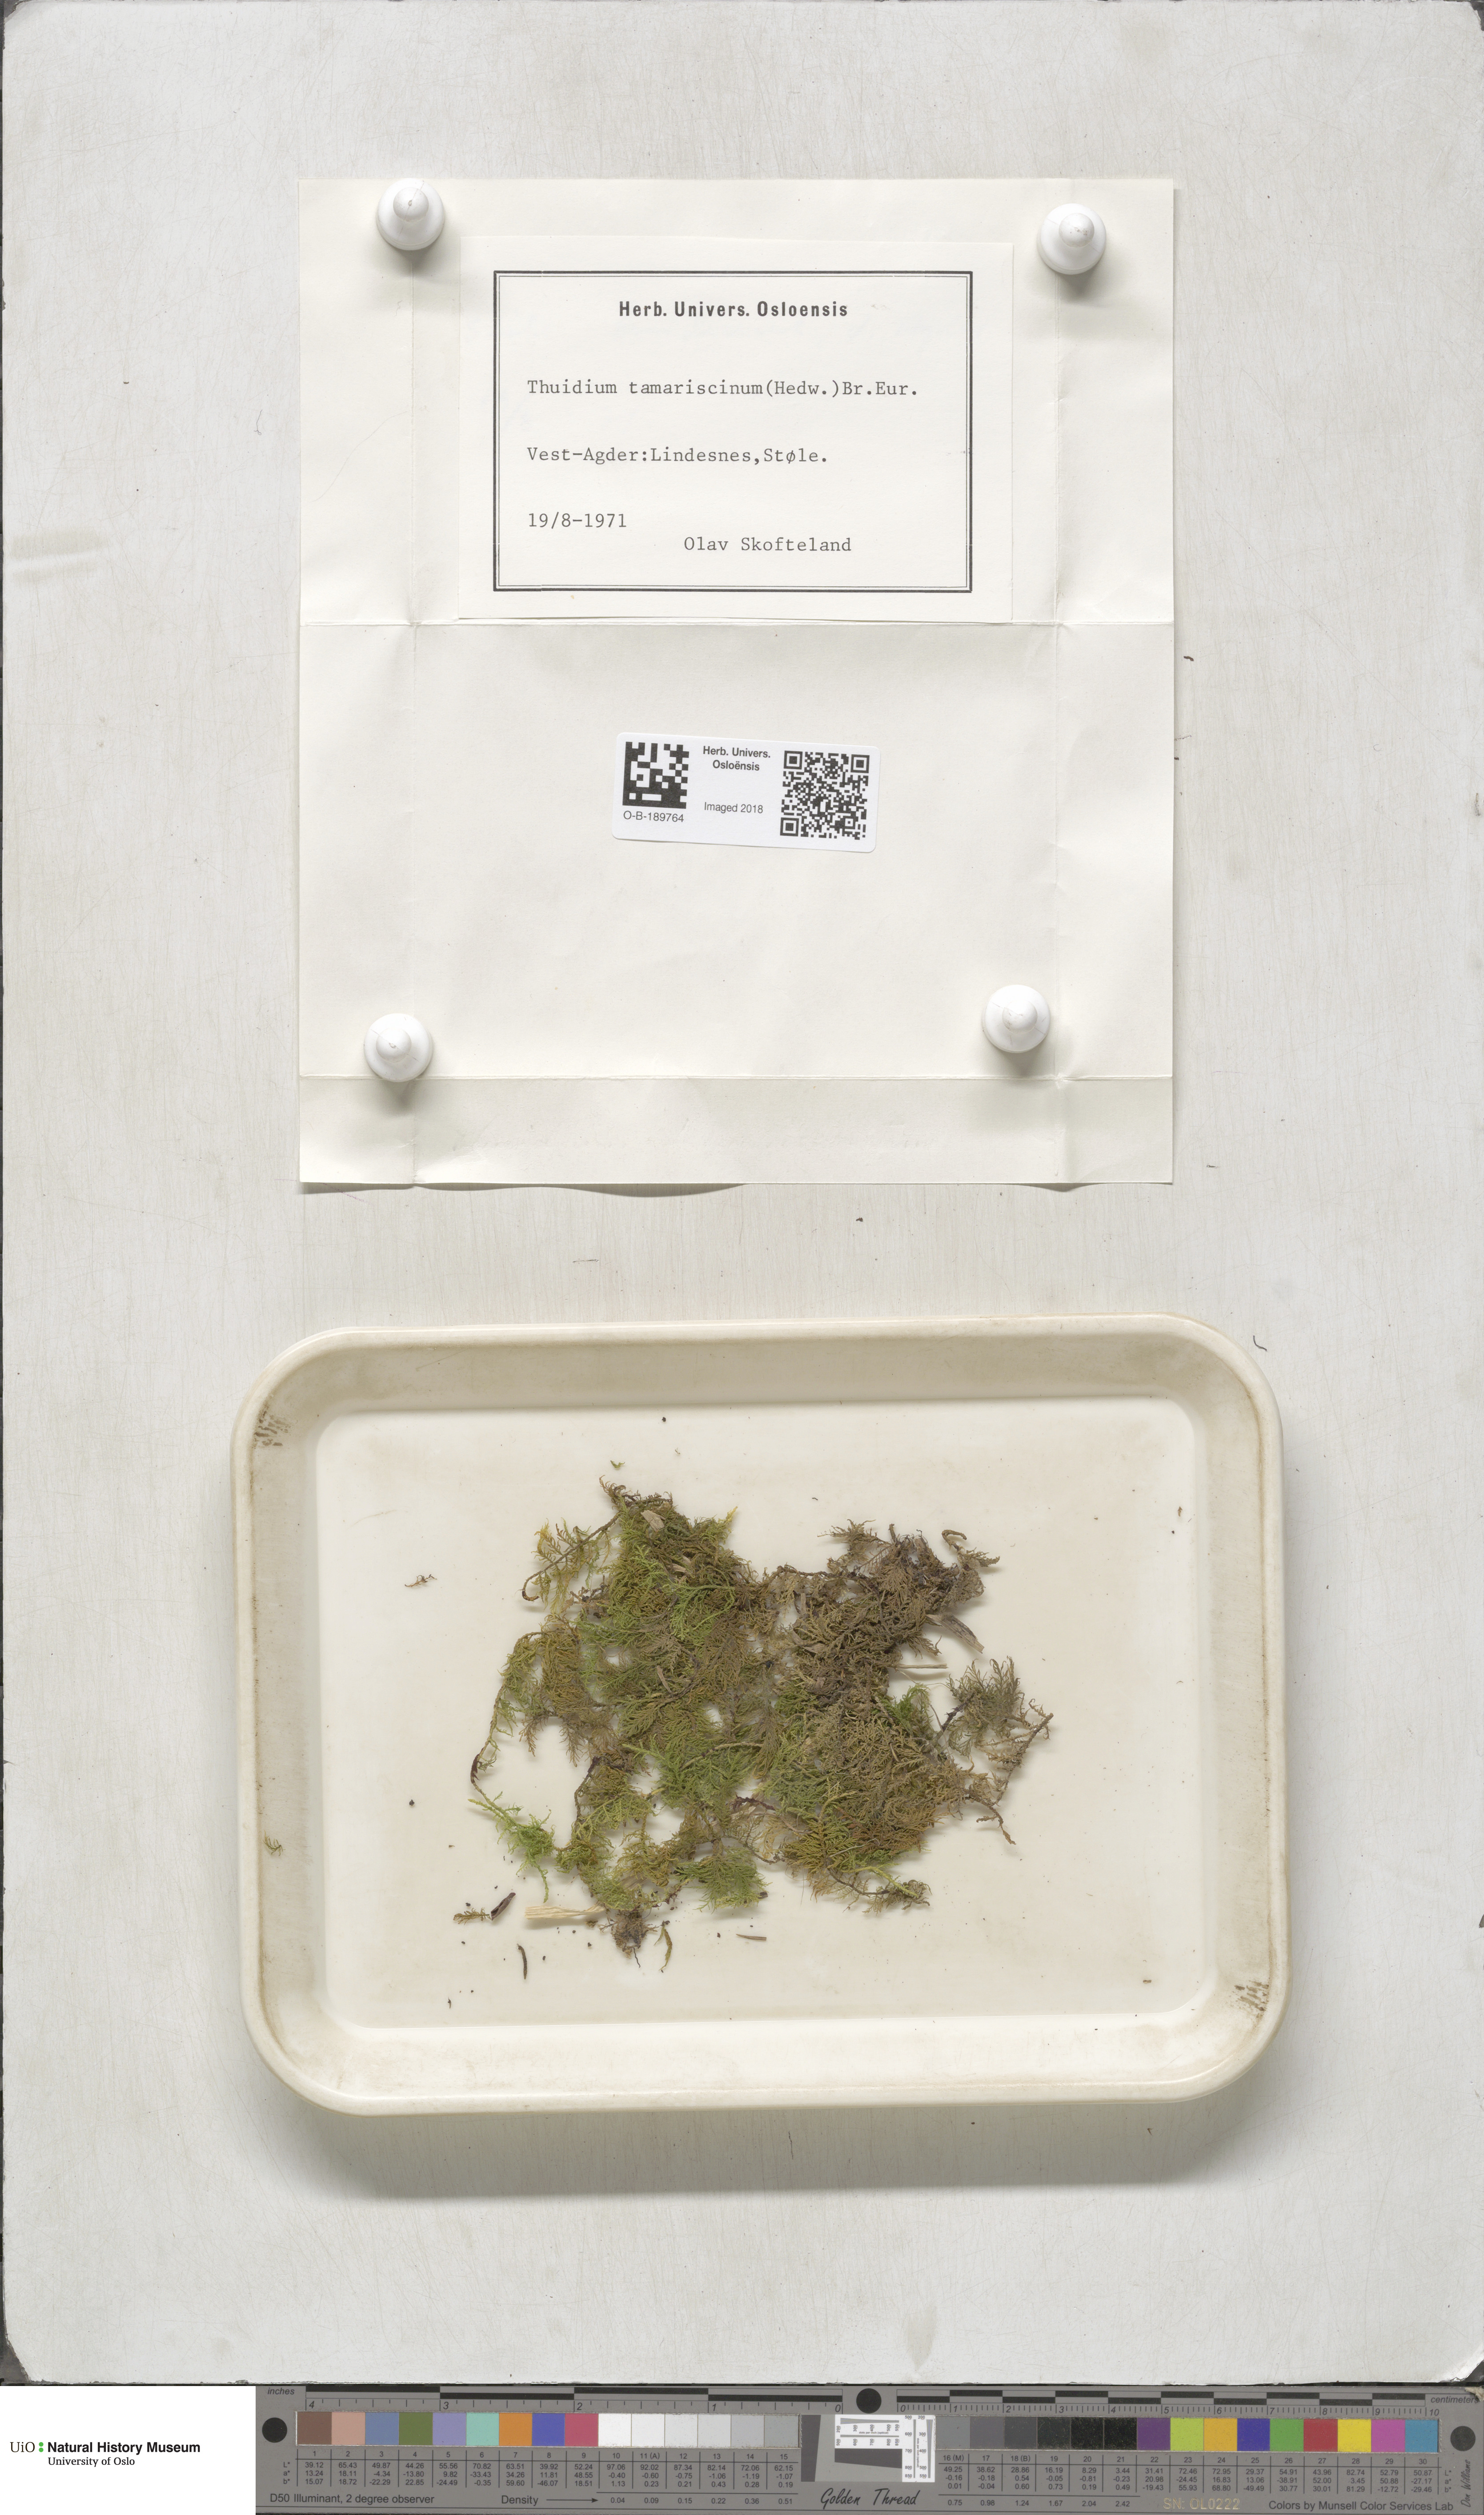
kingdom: Plantae
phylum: Bryophyta
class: Bryopsida
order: Hypnales
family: Thuidiaceae
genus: Thuidium
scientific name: Thuidium tamariscinum
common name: Common tamarisk-moss
